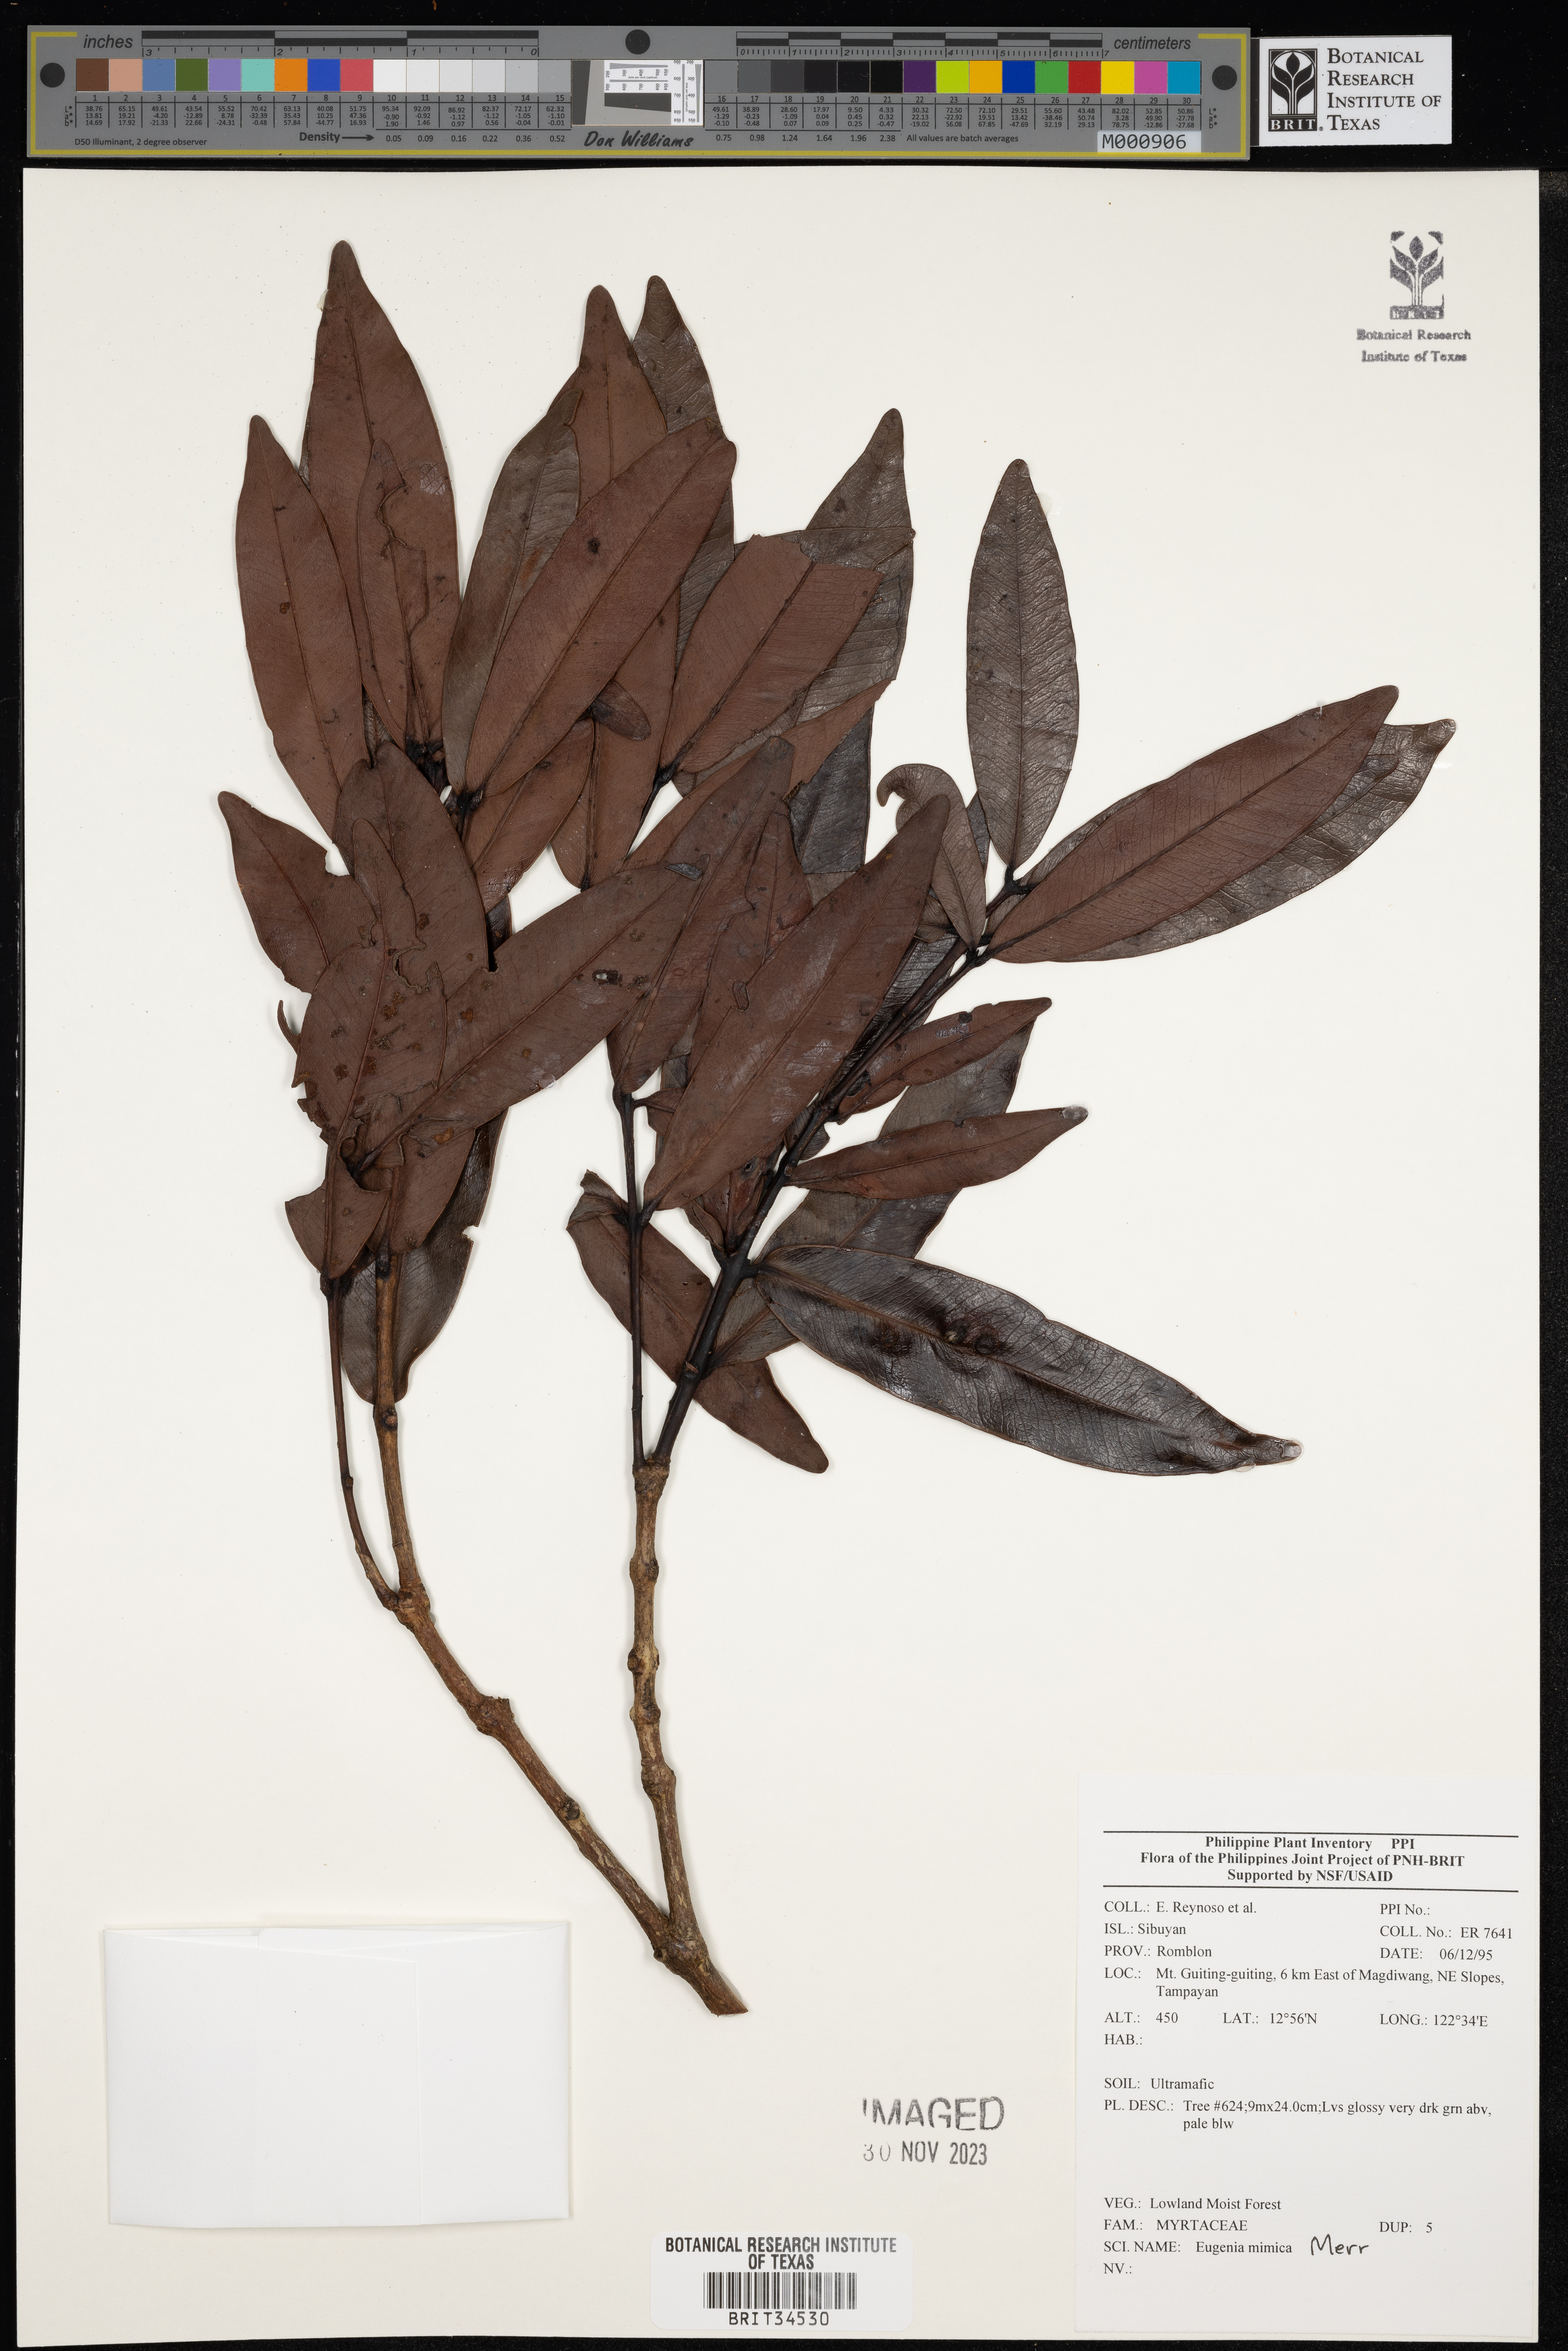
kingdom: Plantae
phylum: Tracheophyta
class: Magnoliopsida
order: Myrtales
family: Myrtaceae
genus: Eugenia
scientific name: Eugenia
